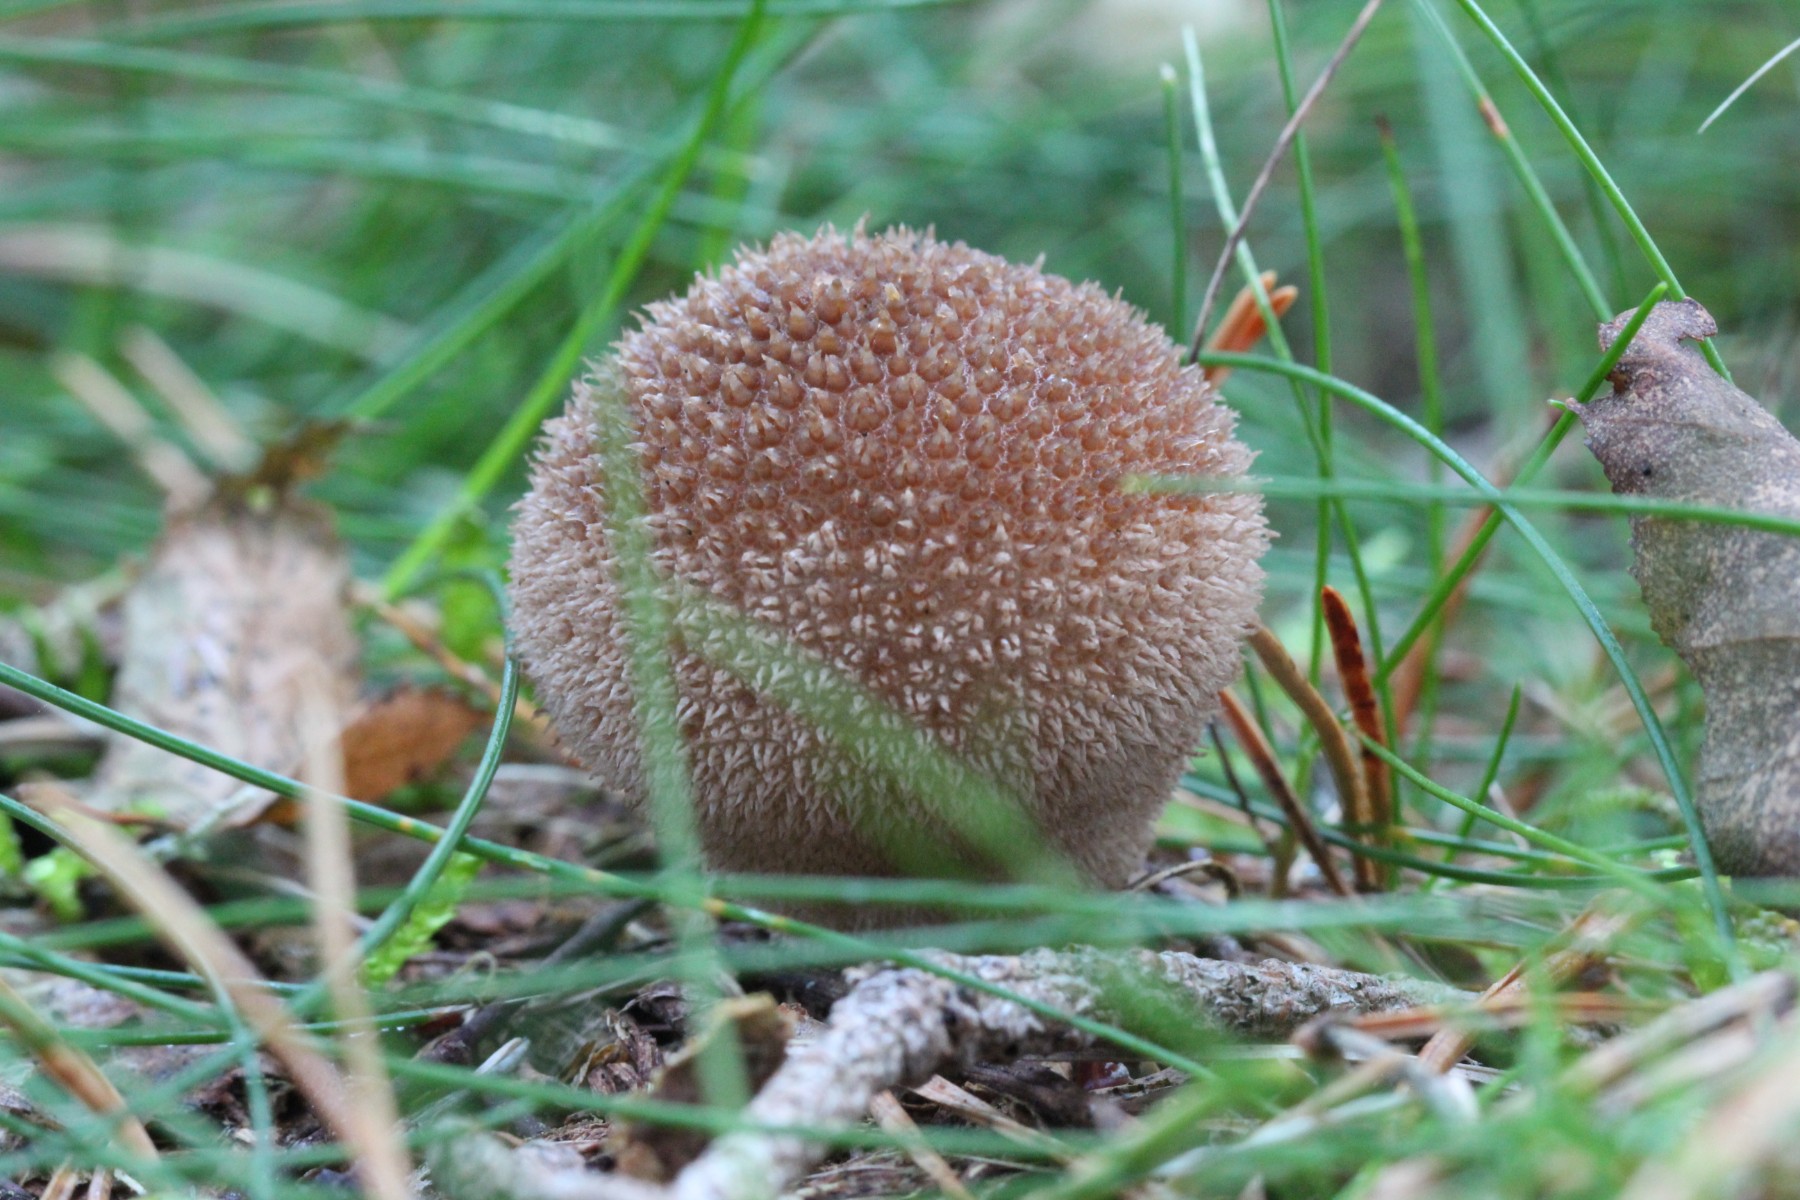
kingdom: Fungi
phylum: Basidiomycota
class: Agaricomycetes
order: Agaricales
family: Lycoperdaceae
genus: Lycoperdon
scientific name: Lycoperdon nigrescens
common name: sortagtig støvbold
